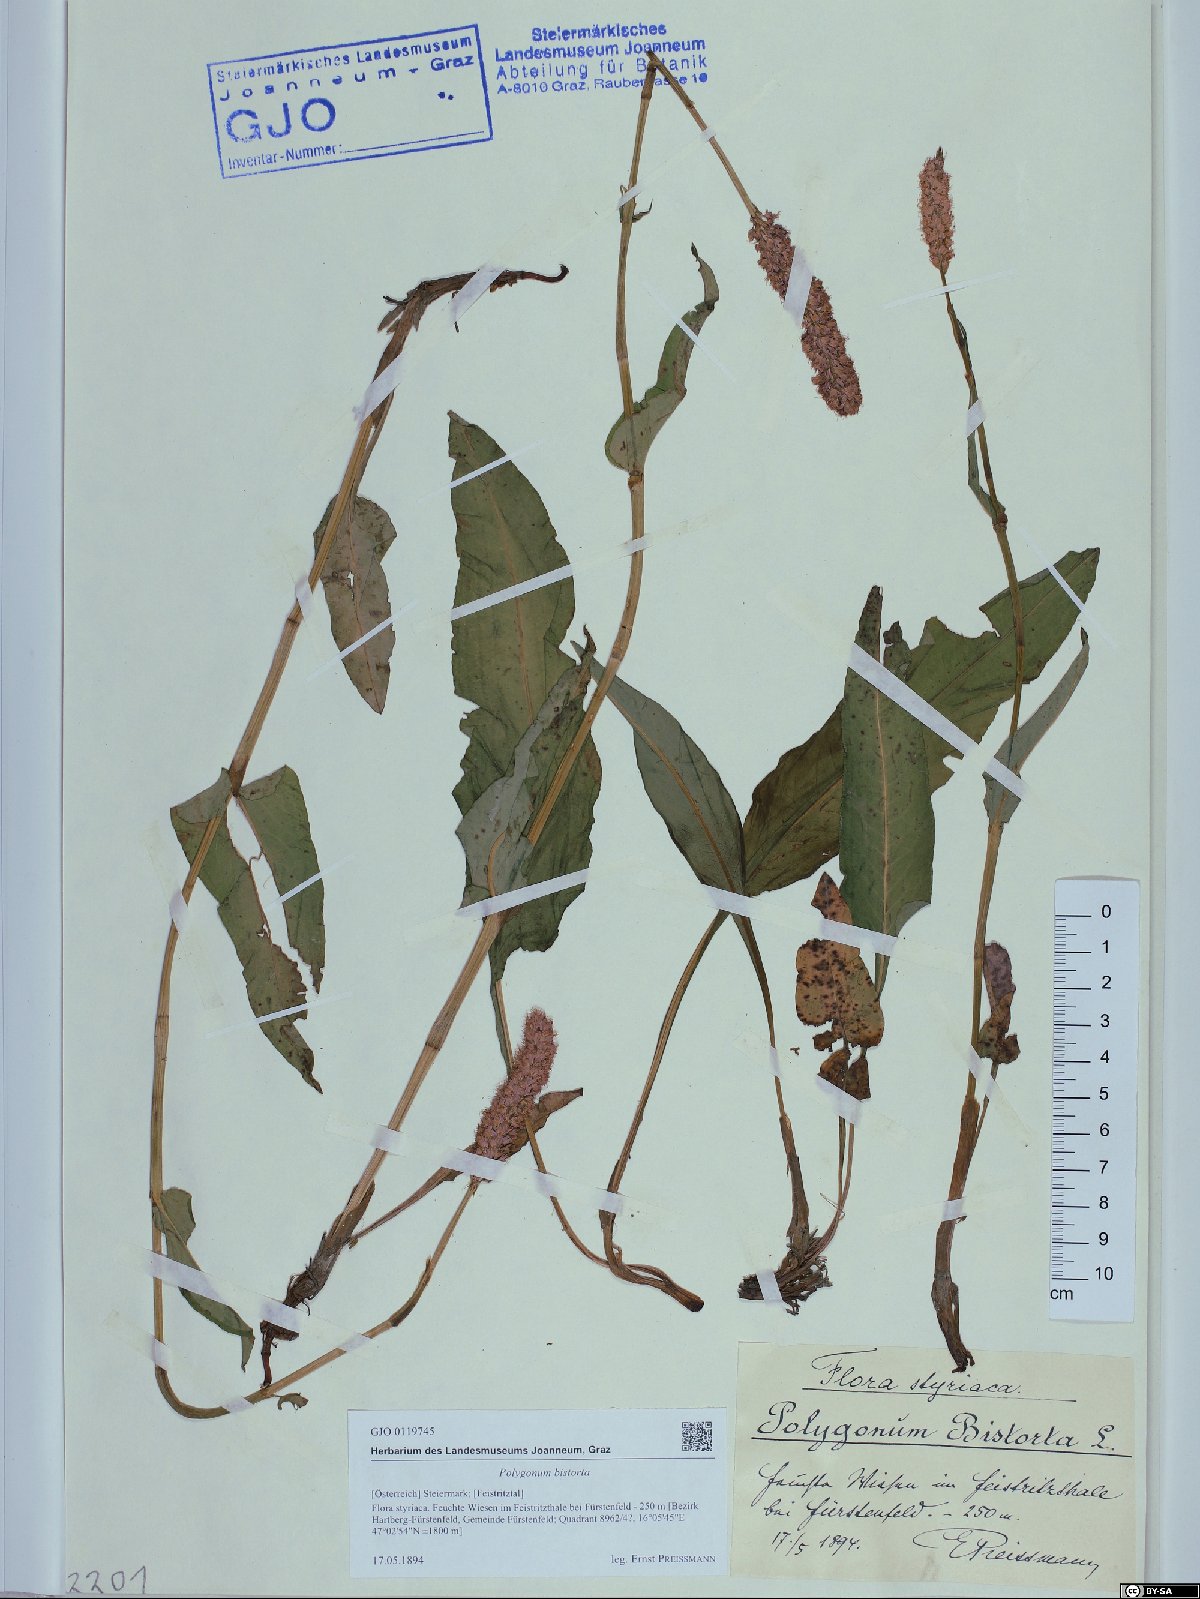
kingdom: Plantae
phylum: Tracheophyta
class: Magnoliopsida
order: Caryophyllales
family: Polygonaceae
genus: Bistorta
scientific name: Bistorta officinalis
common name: Common bistort
